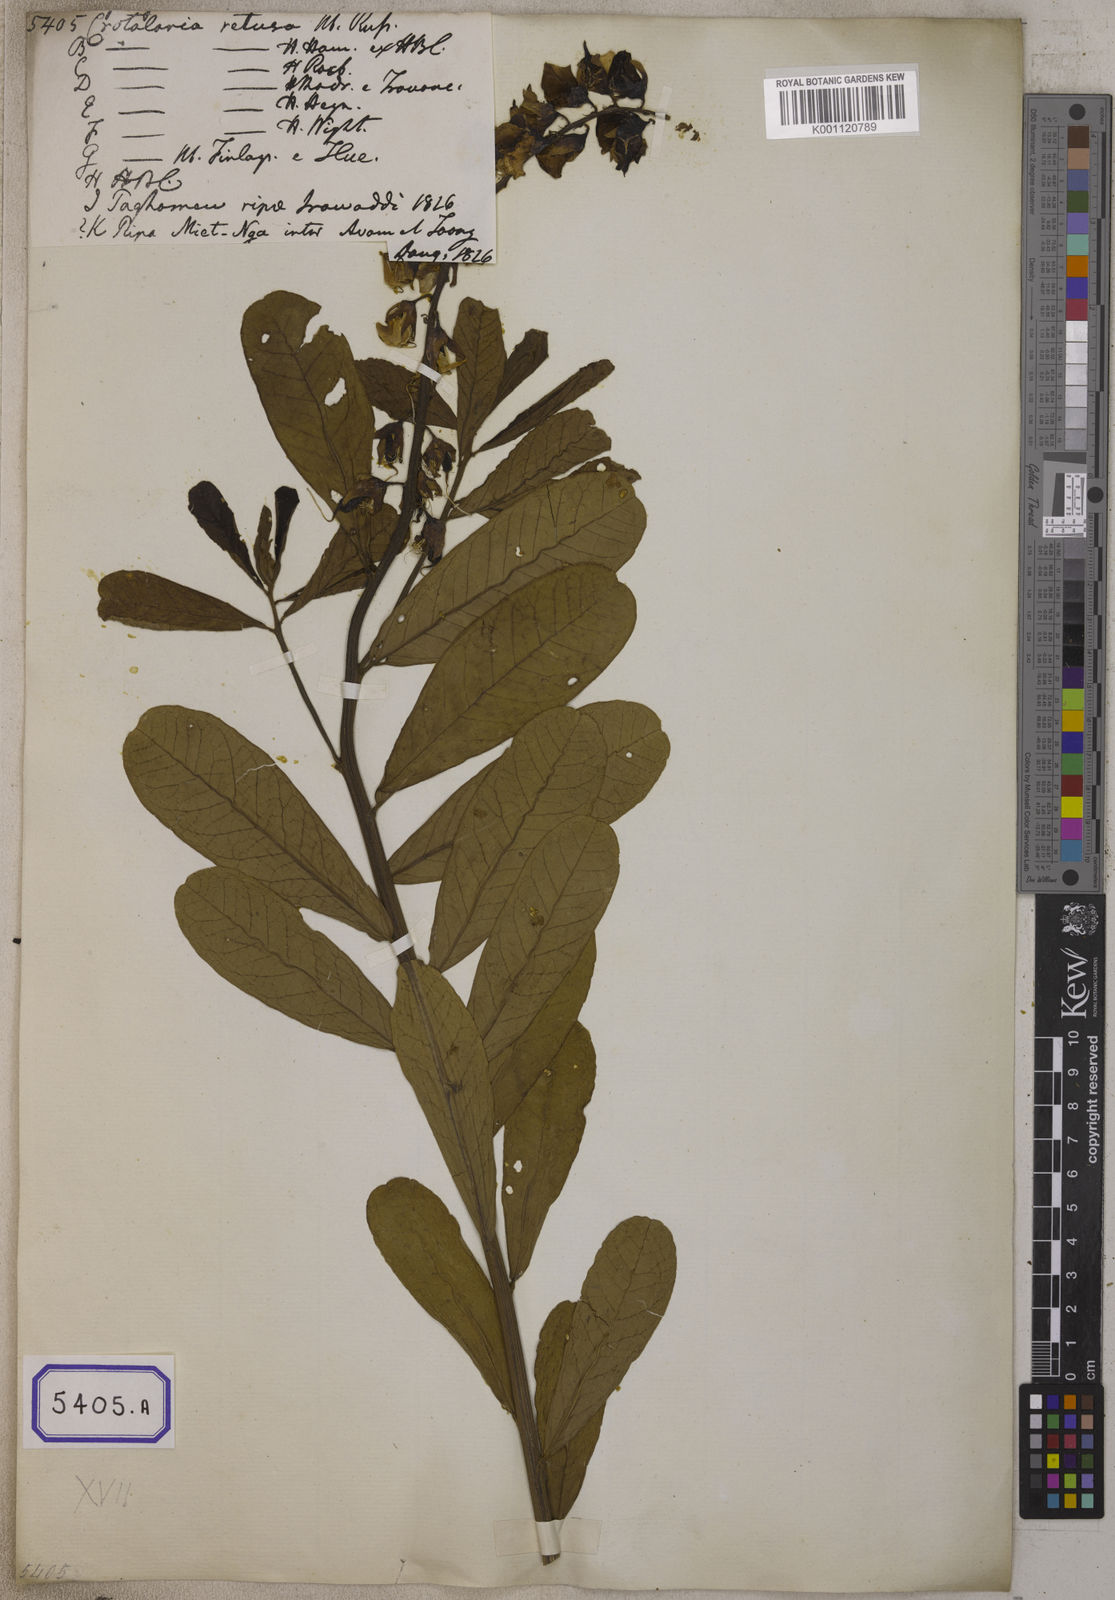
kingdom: Plantae
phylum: Tracheophyta
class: Magnoliopsida
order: Fabales
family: Fabaceae
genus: Crotalaria
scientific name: Crotalaria retusa
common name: Rattleweed
